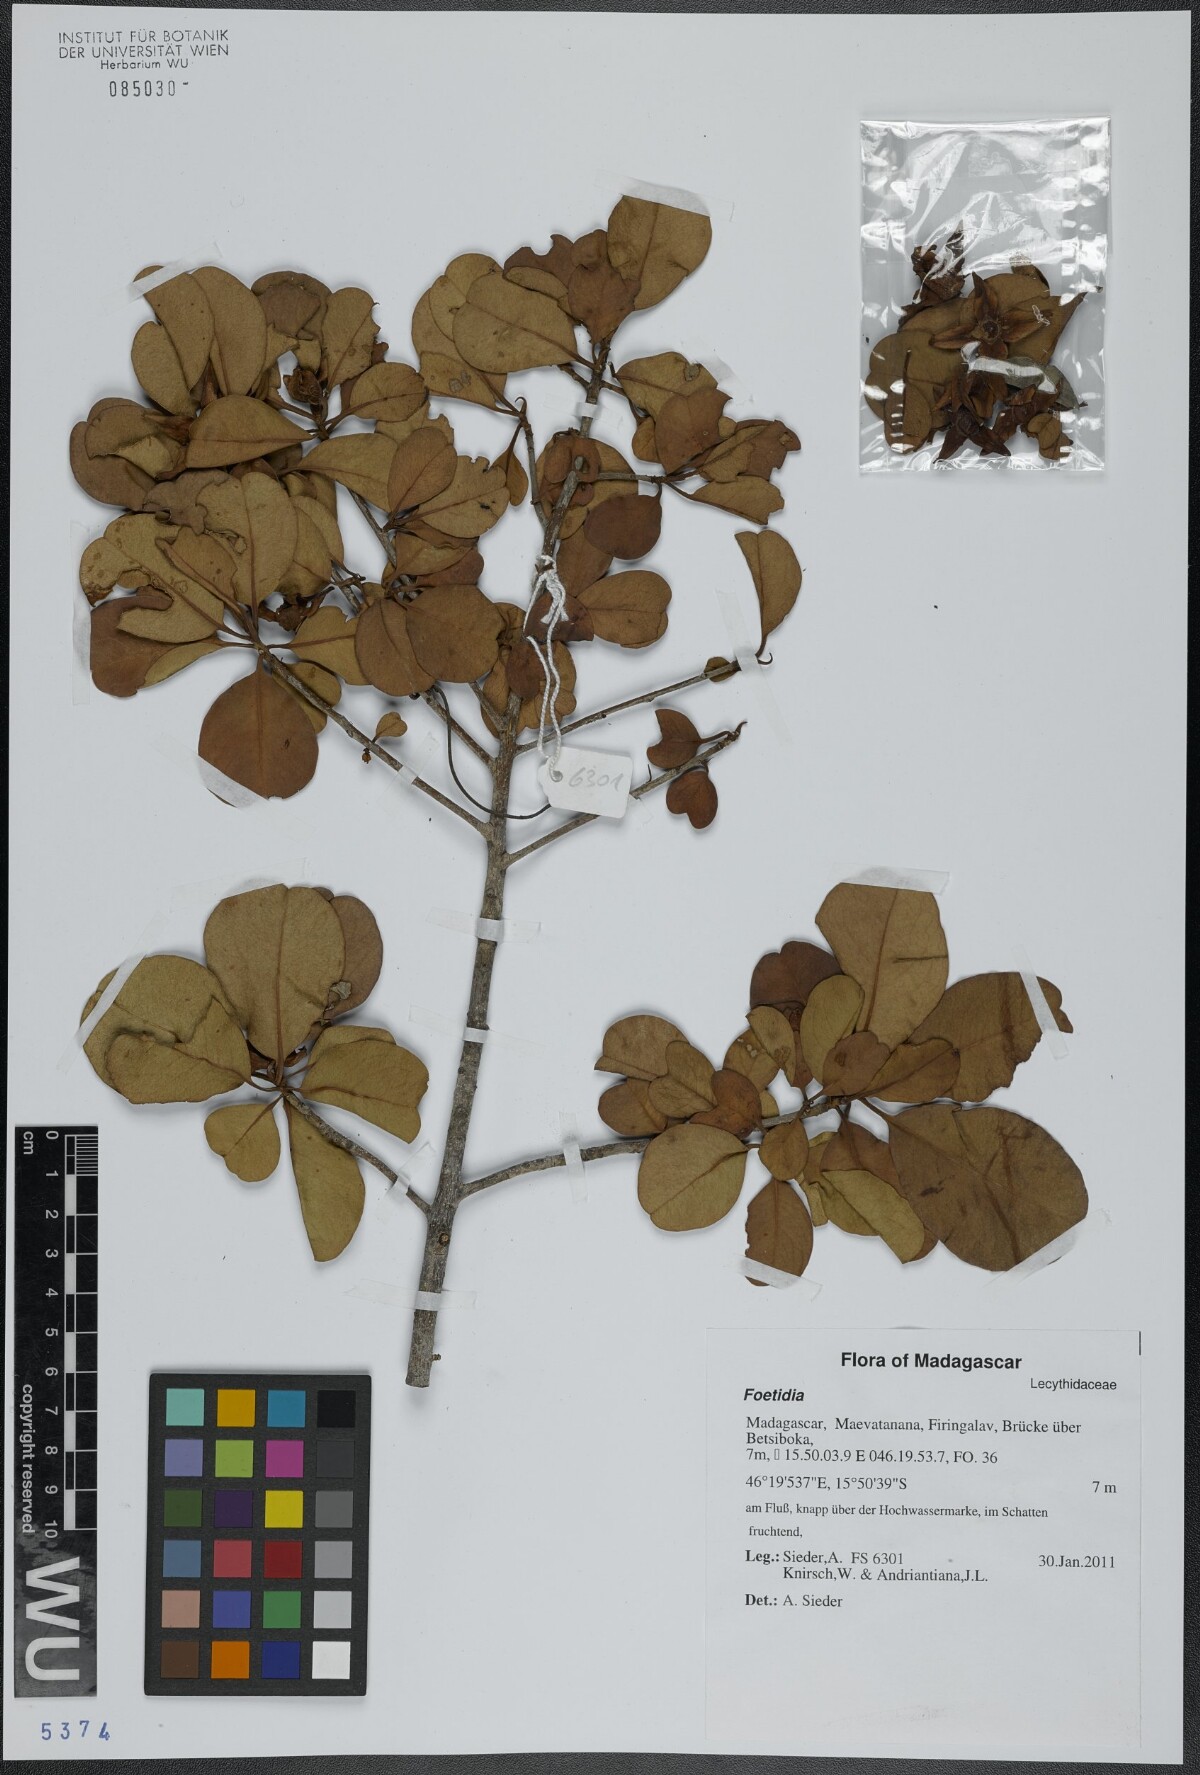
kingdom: Plantae
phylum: Tracheophyta
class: Magnoliopsida
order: Ericales
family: Lecythidaceae
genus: Foetidia
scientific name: Foetidia
